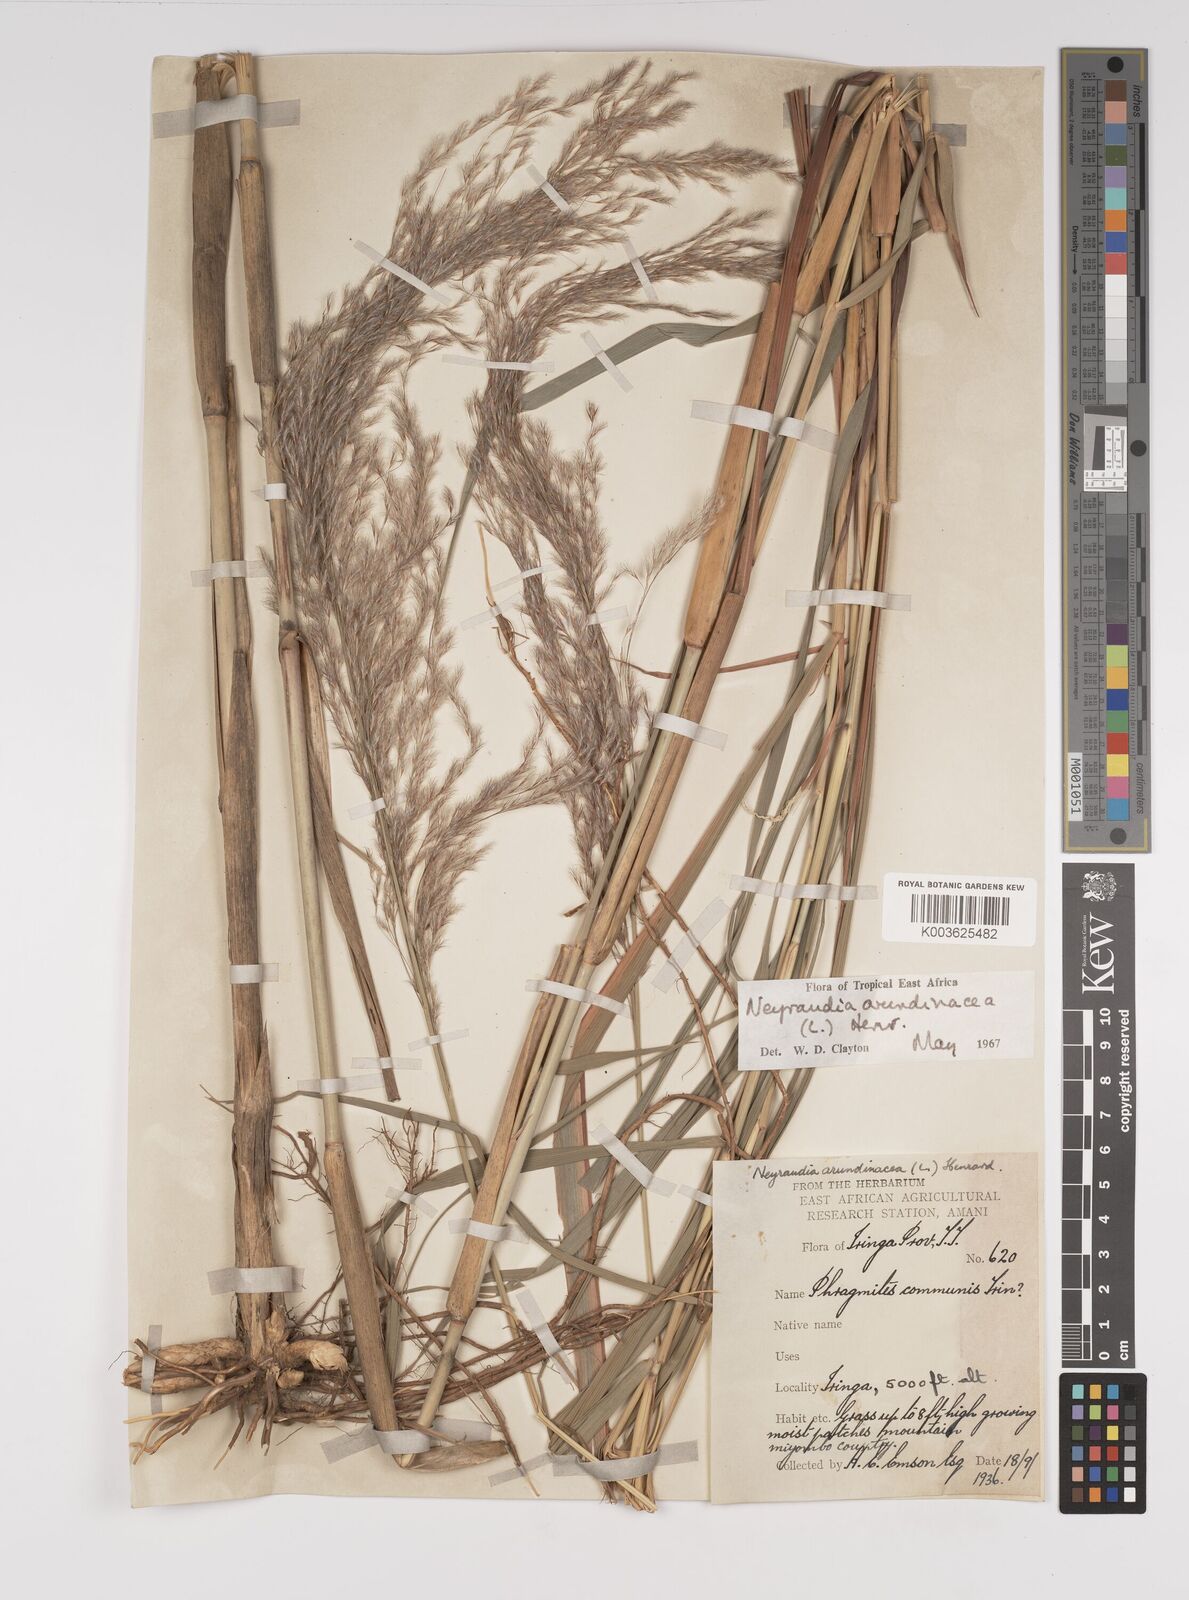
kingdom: Plantae
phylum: Tracheophyta
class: Liliopsida
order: Poales
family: Poaceae
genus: Neyraudia
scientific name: Neyraudia arundinacea
